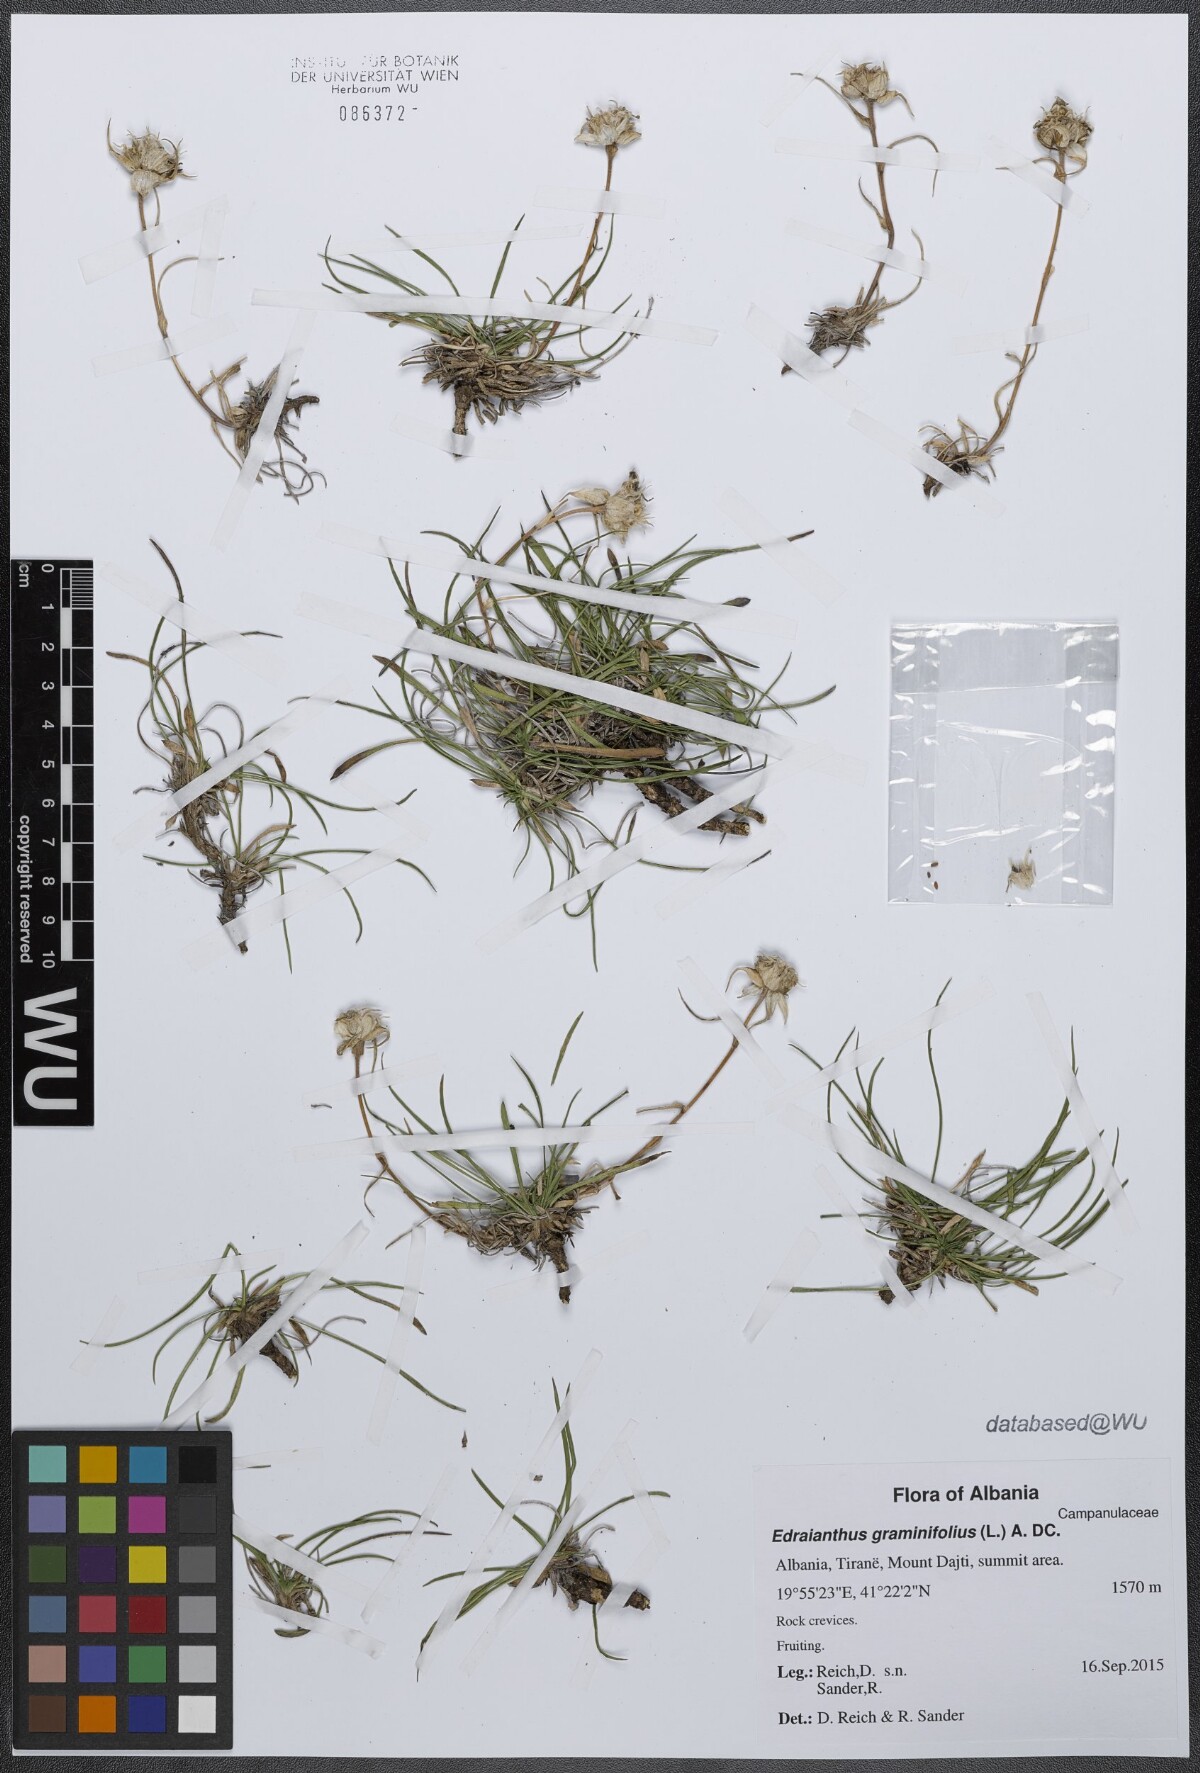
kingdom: Plantae
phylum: Tracheophyta
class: Magnoliopsida
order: Asterales
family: Campanulaceae
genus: Edraianthus
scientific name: Edraianthus graminifolius
